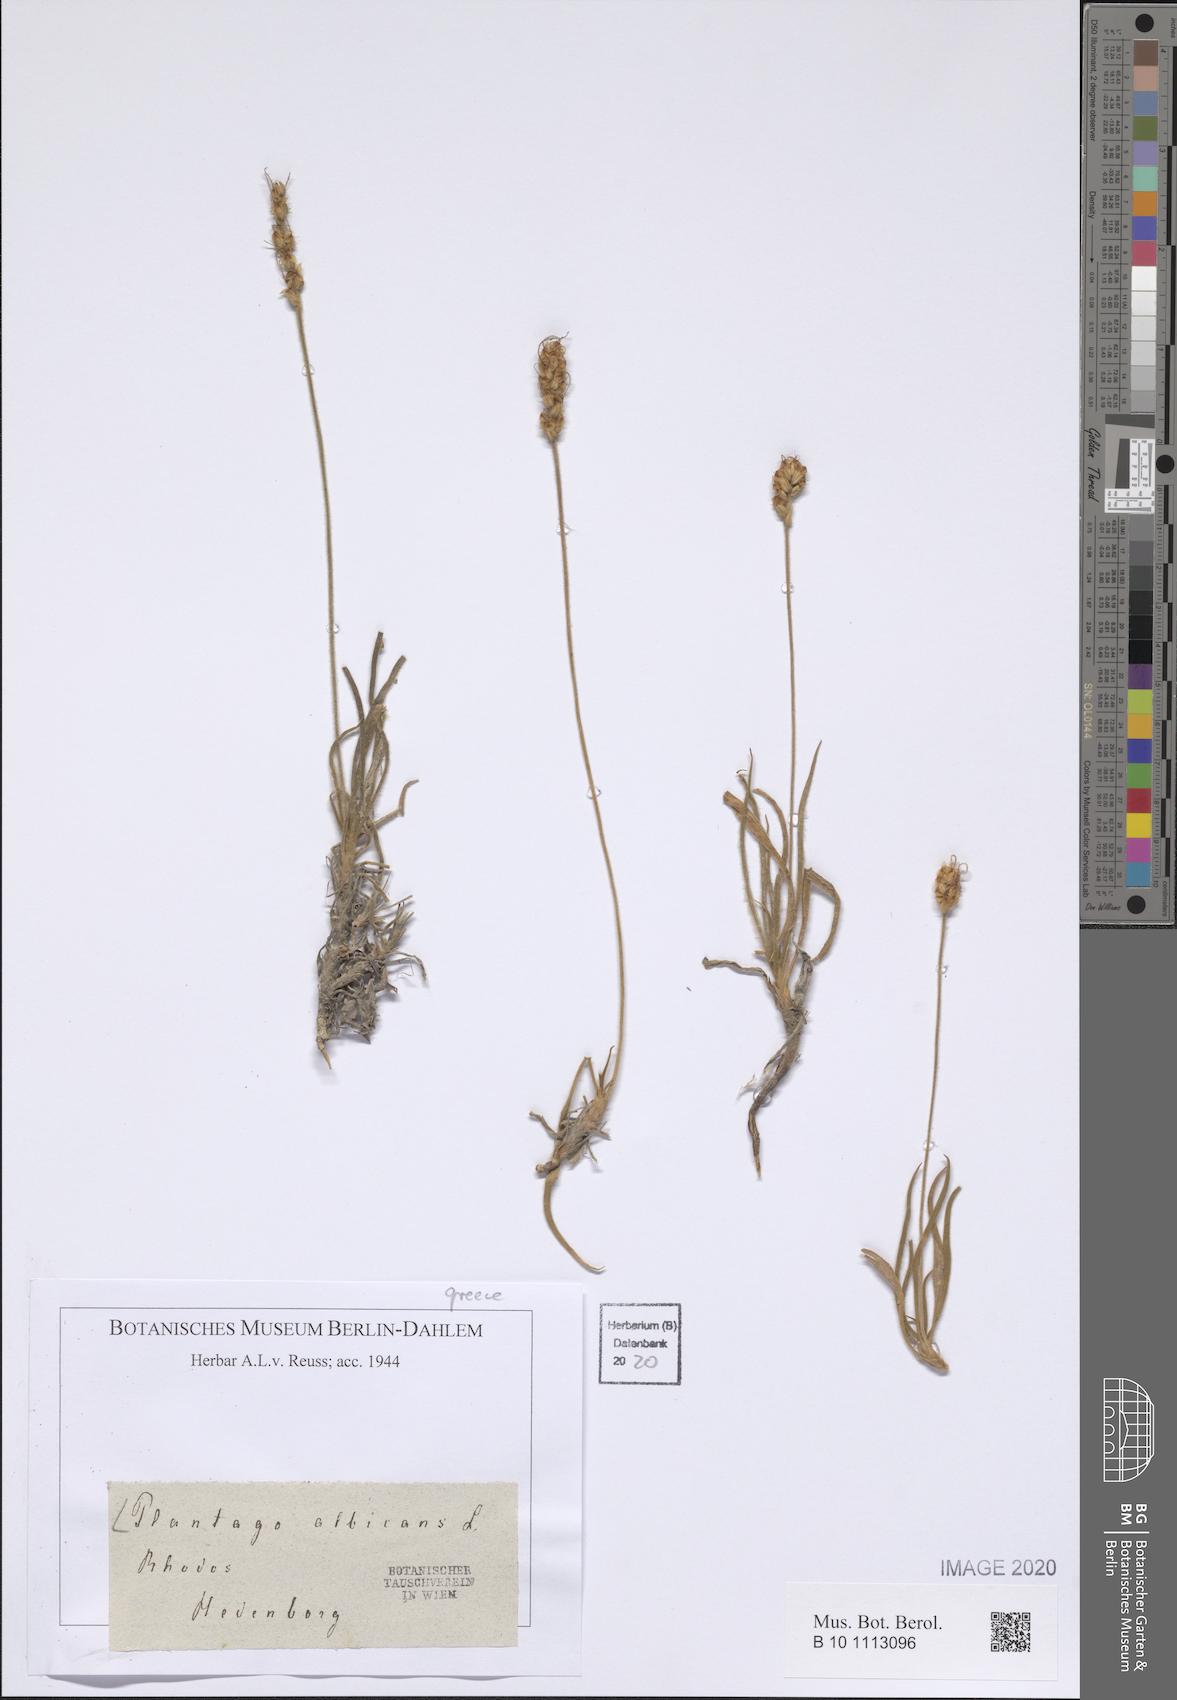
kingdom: Plantae
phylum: Tracheophyta
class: Magnoliopsida
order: Lamiales
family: Plantaginaceae
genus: Plantago
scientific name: Plantago albicans
